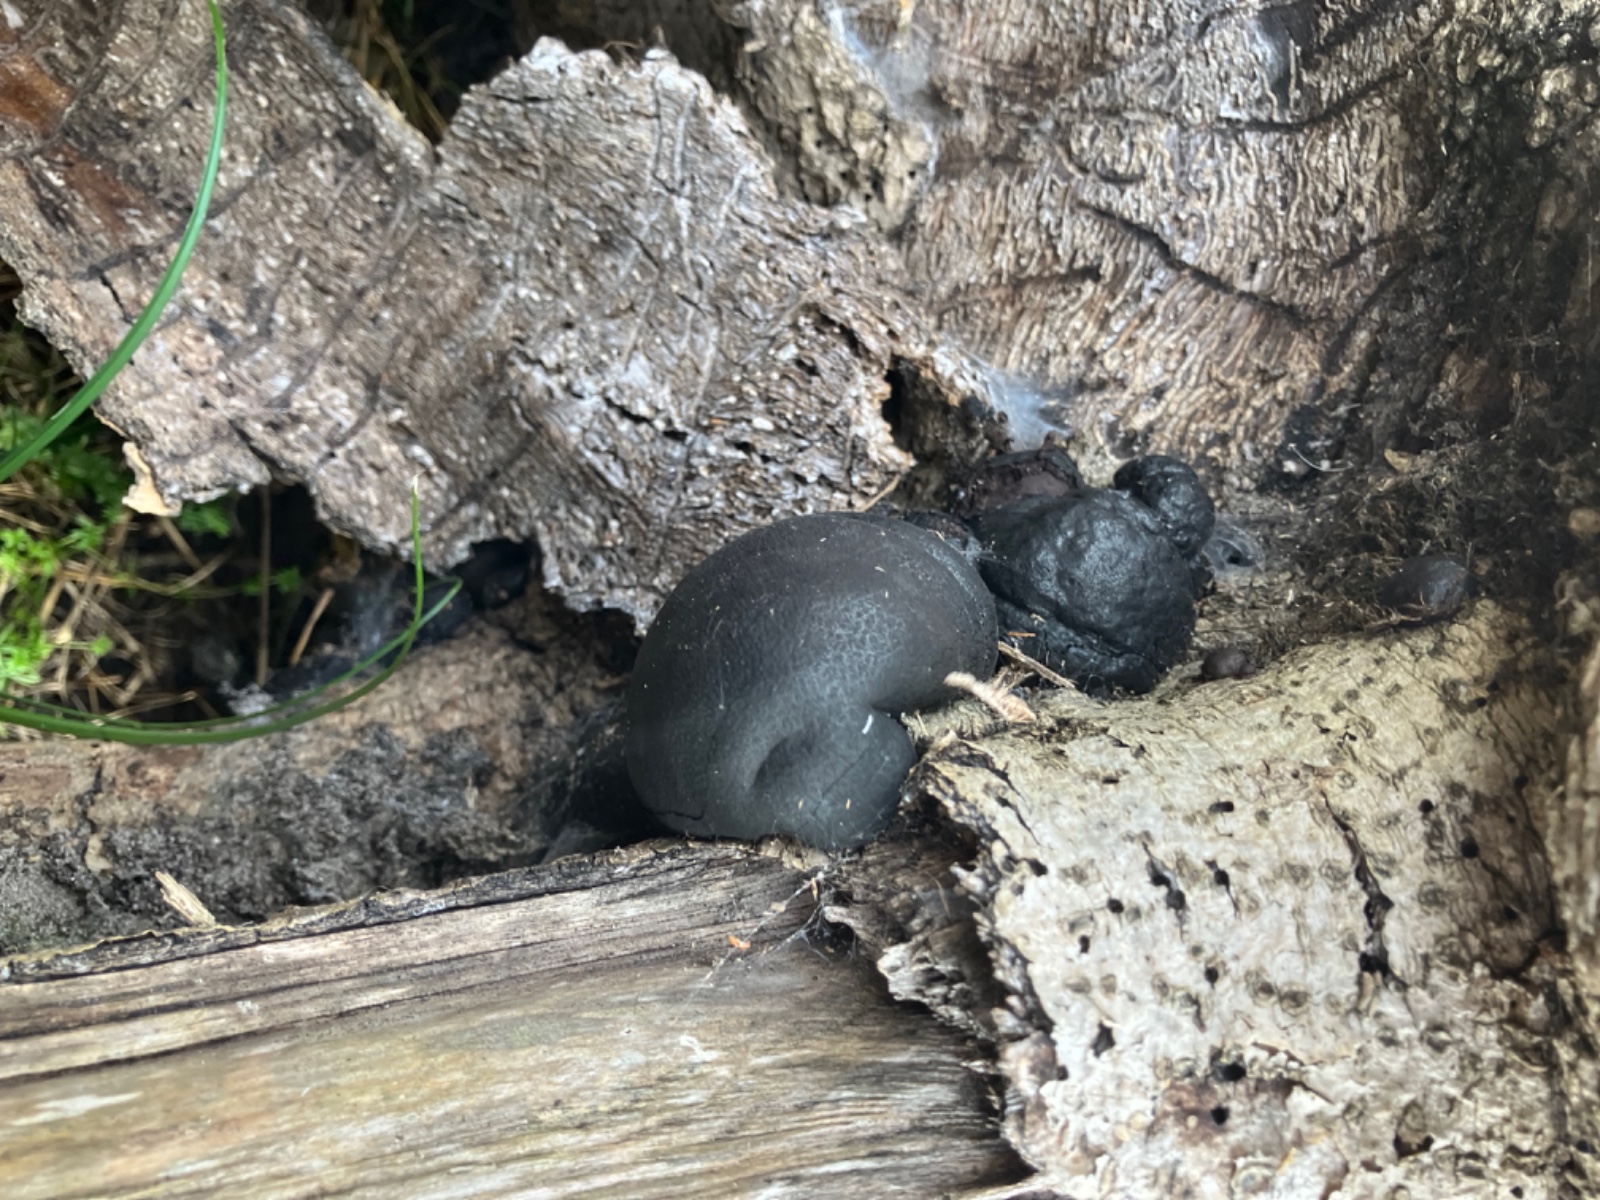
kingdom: Fungi
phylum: Ascomycota
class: Sordariomycetes
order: Xylariales
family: Hypoxylaceae
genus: Daldinia
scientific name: Daldinia concentrica
